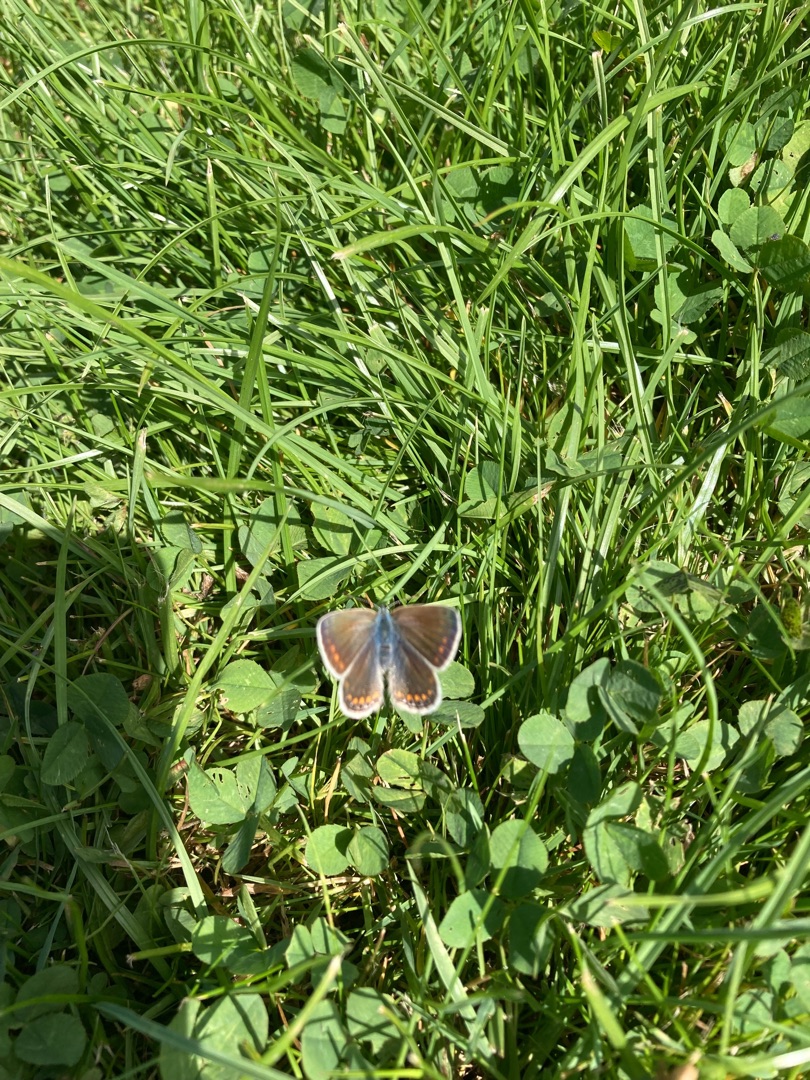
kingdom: Animalia
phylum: Arthropoda
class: Insecta
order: Lepidoptera
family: Lycaenidae
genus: Polyommatus
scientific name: Polyommatus icarus
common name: Almindelig blåfugl
